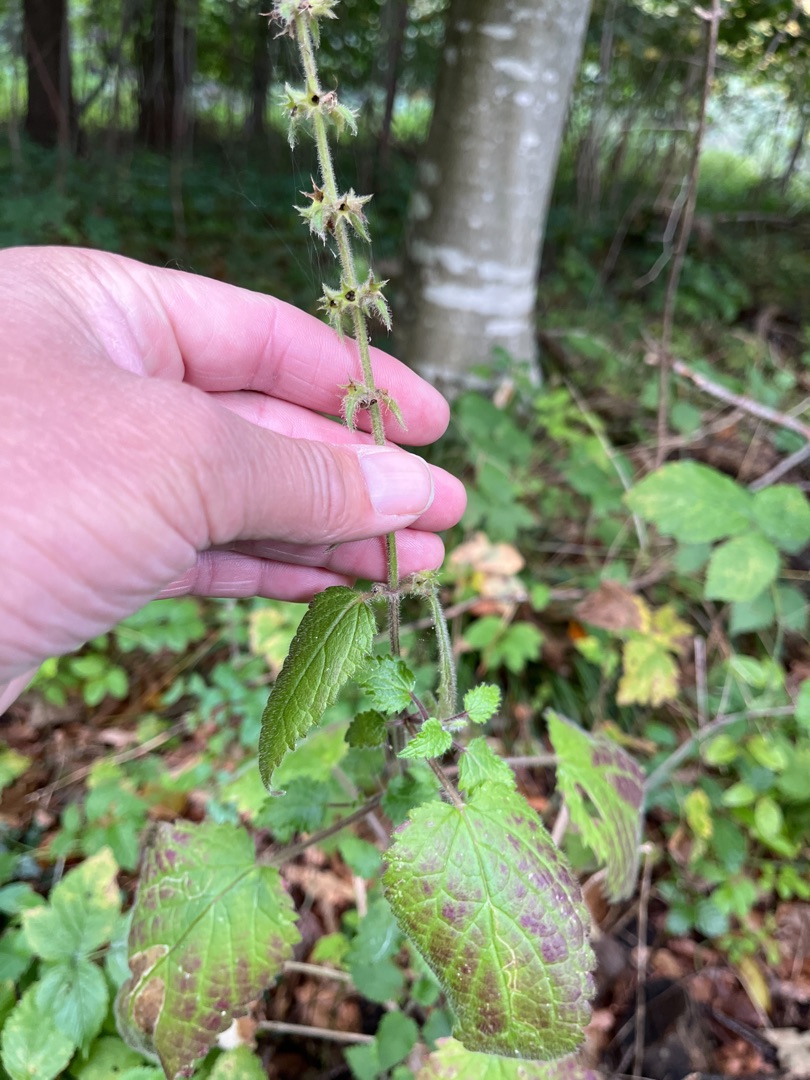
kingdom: Plantae
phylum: Tracheophyta
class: Magnoliopsida
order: Lamiales
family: Lamiaceae
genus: Stachys
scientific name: Stachys sylvatica
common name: Skov-galtetand
